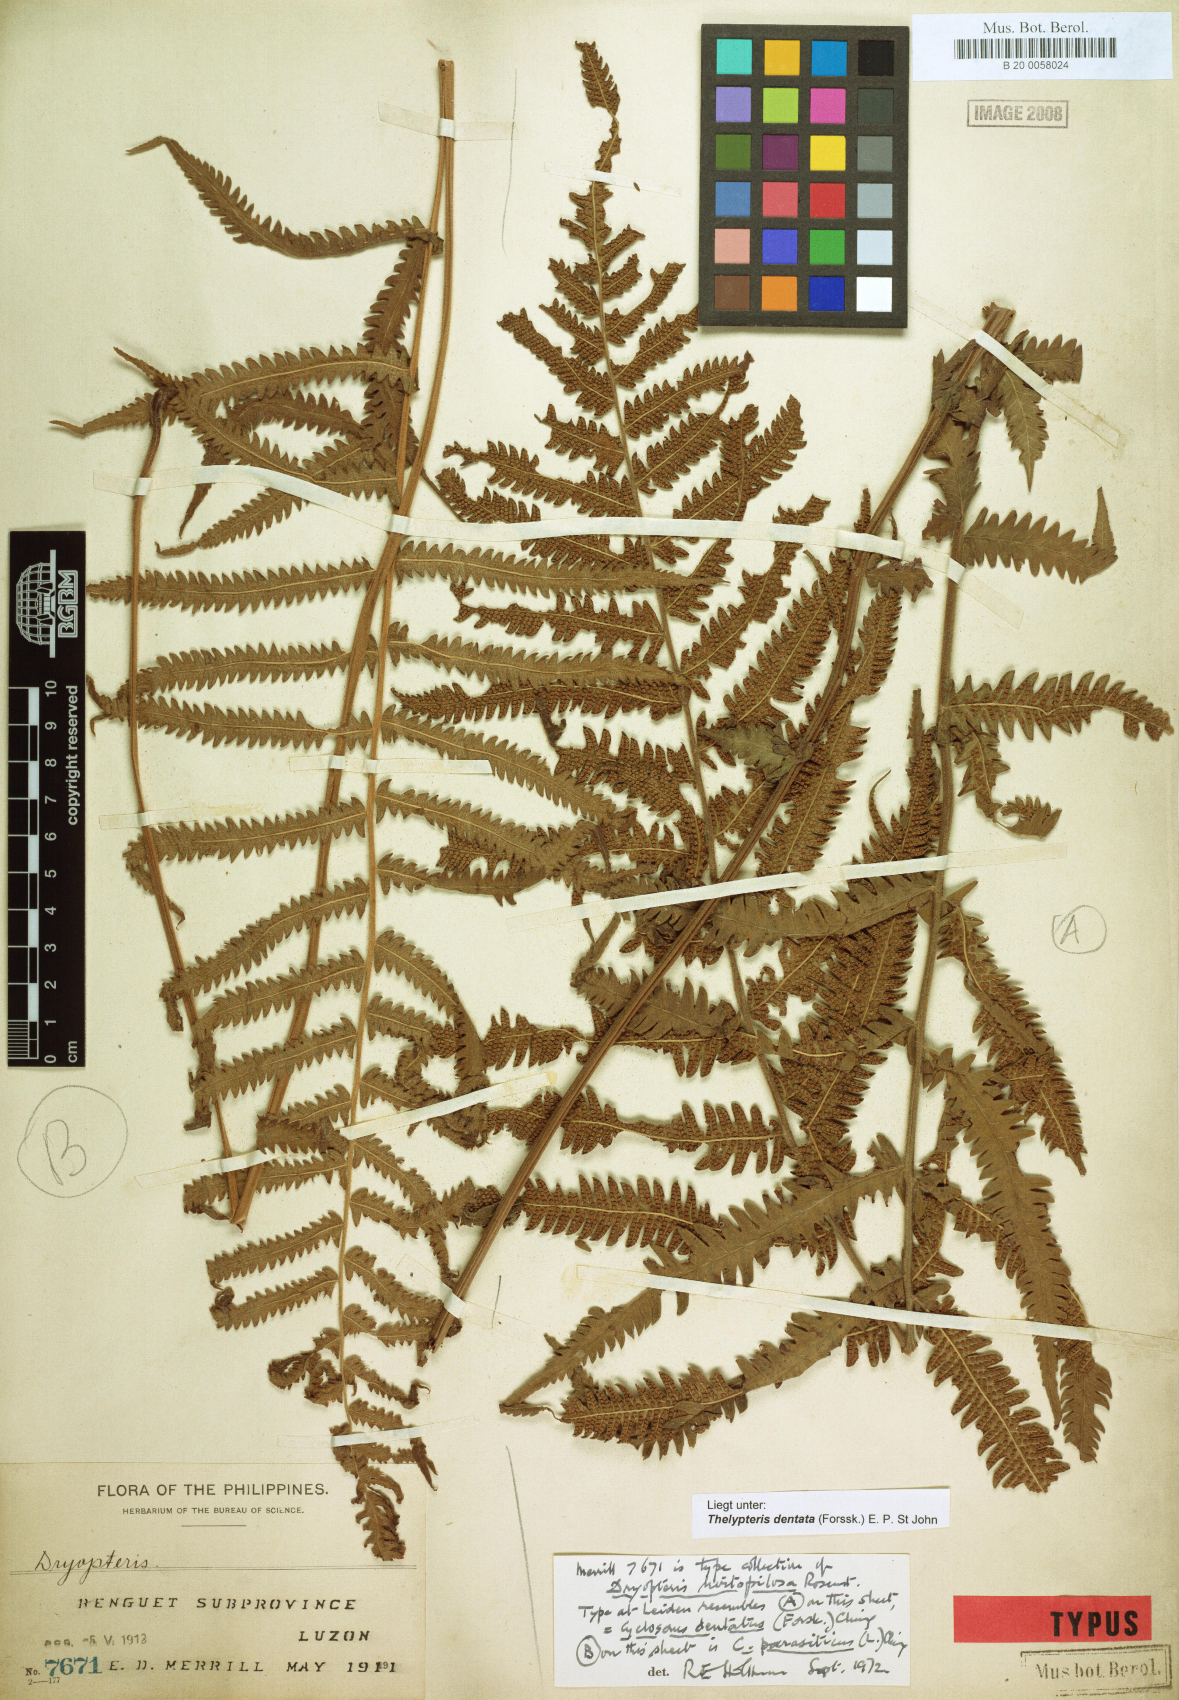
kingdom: Plantae
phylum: Tracheophyta
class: Polypodiopsida
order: Polypodiales
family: Thelypteridaceae
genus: Christella
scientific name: Christella parasitica
